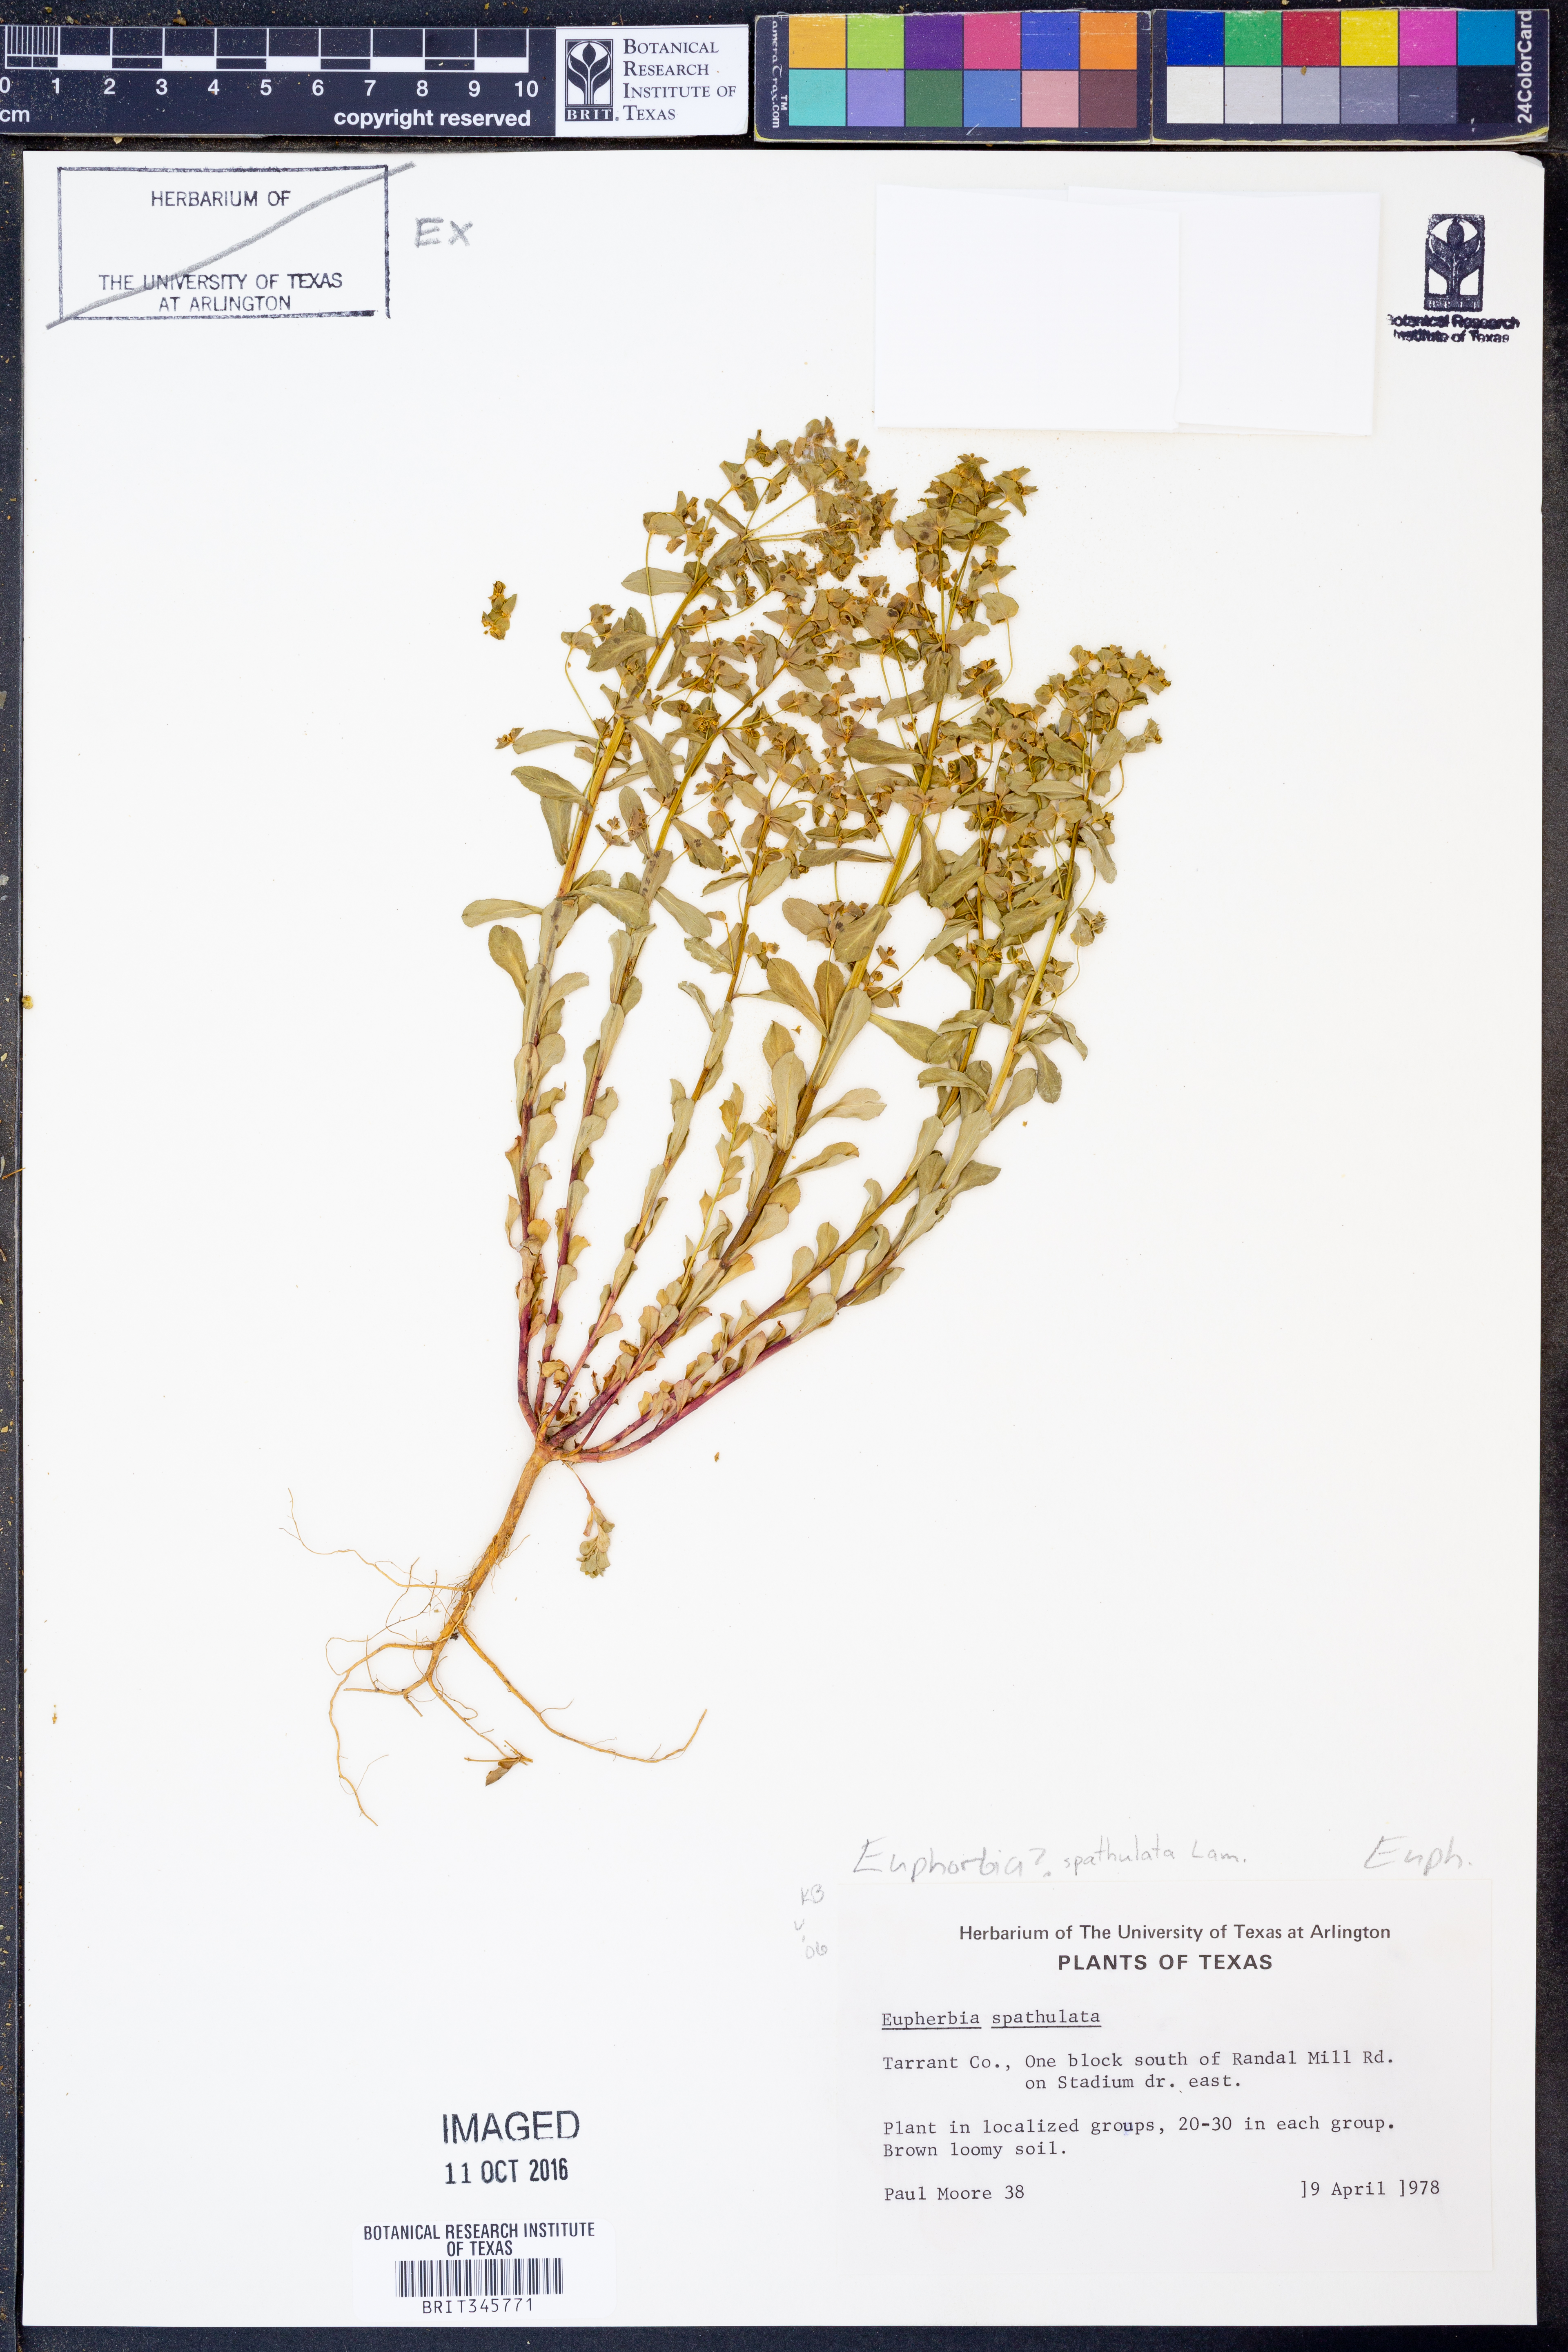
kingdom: Plantae
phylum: Tracheophyta
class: Magnoliopsida
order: Malpighiales
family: Euphorbiaceae
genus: Euphorbia
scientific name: Euphorbia spathulata
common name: Blunt spurge
